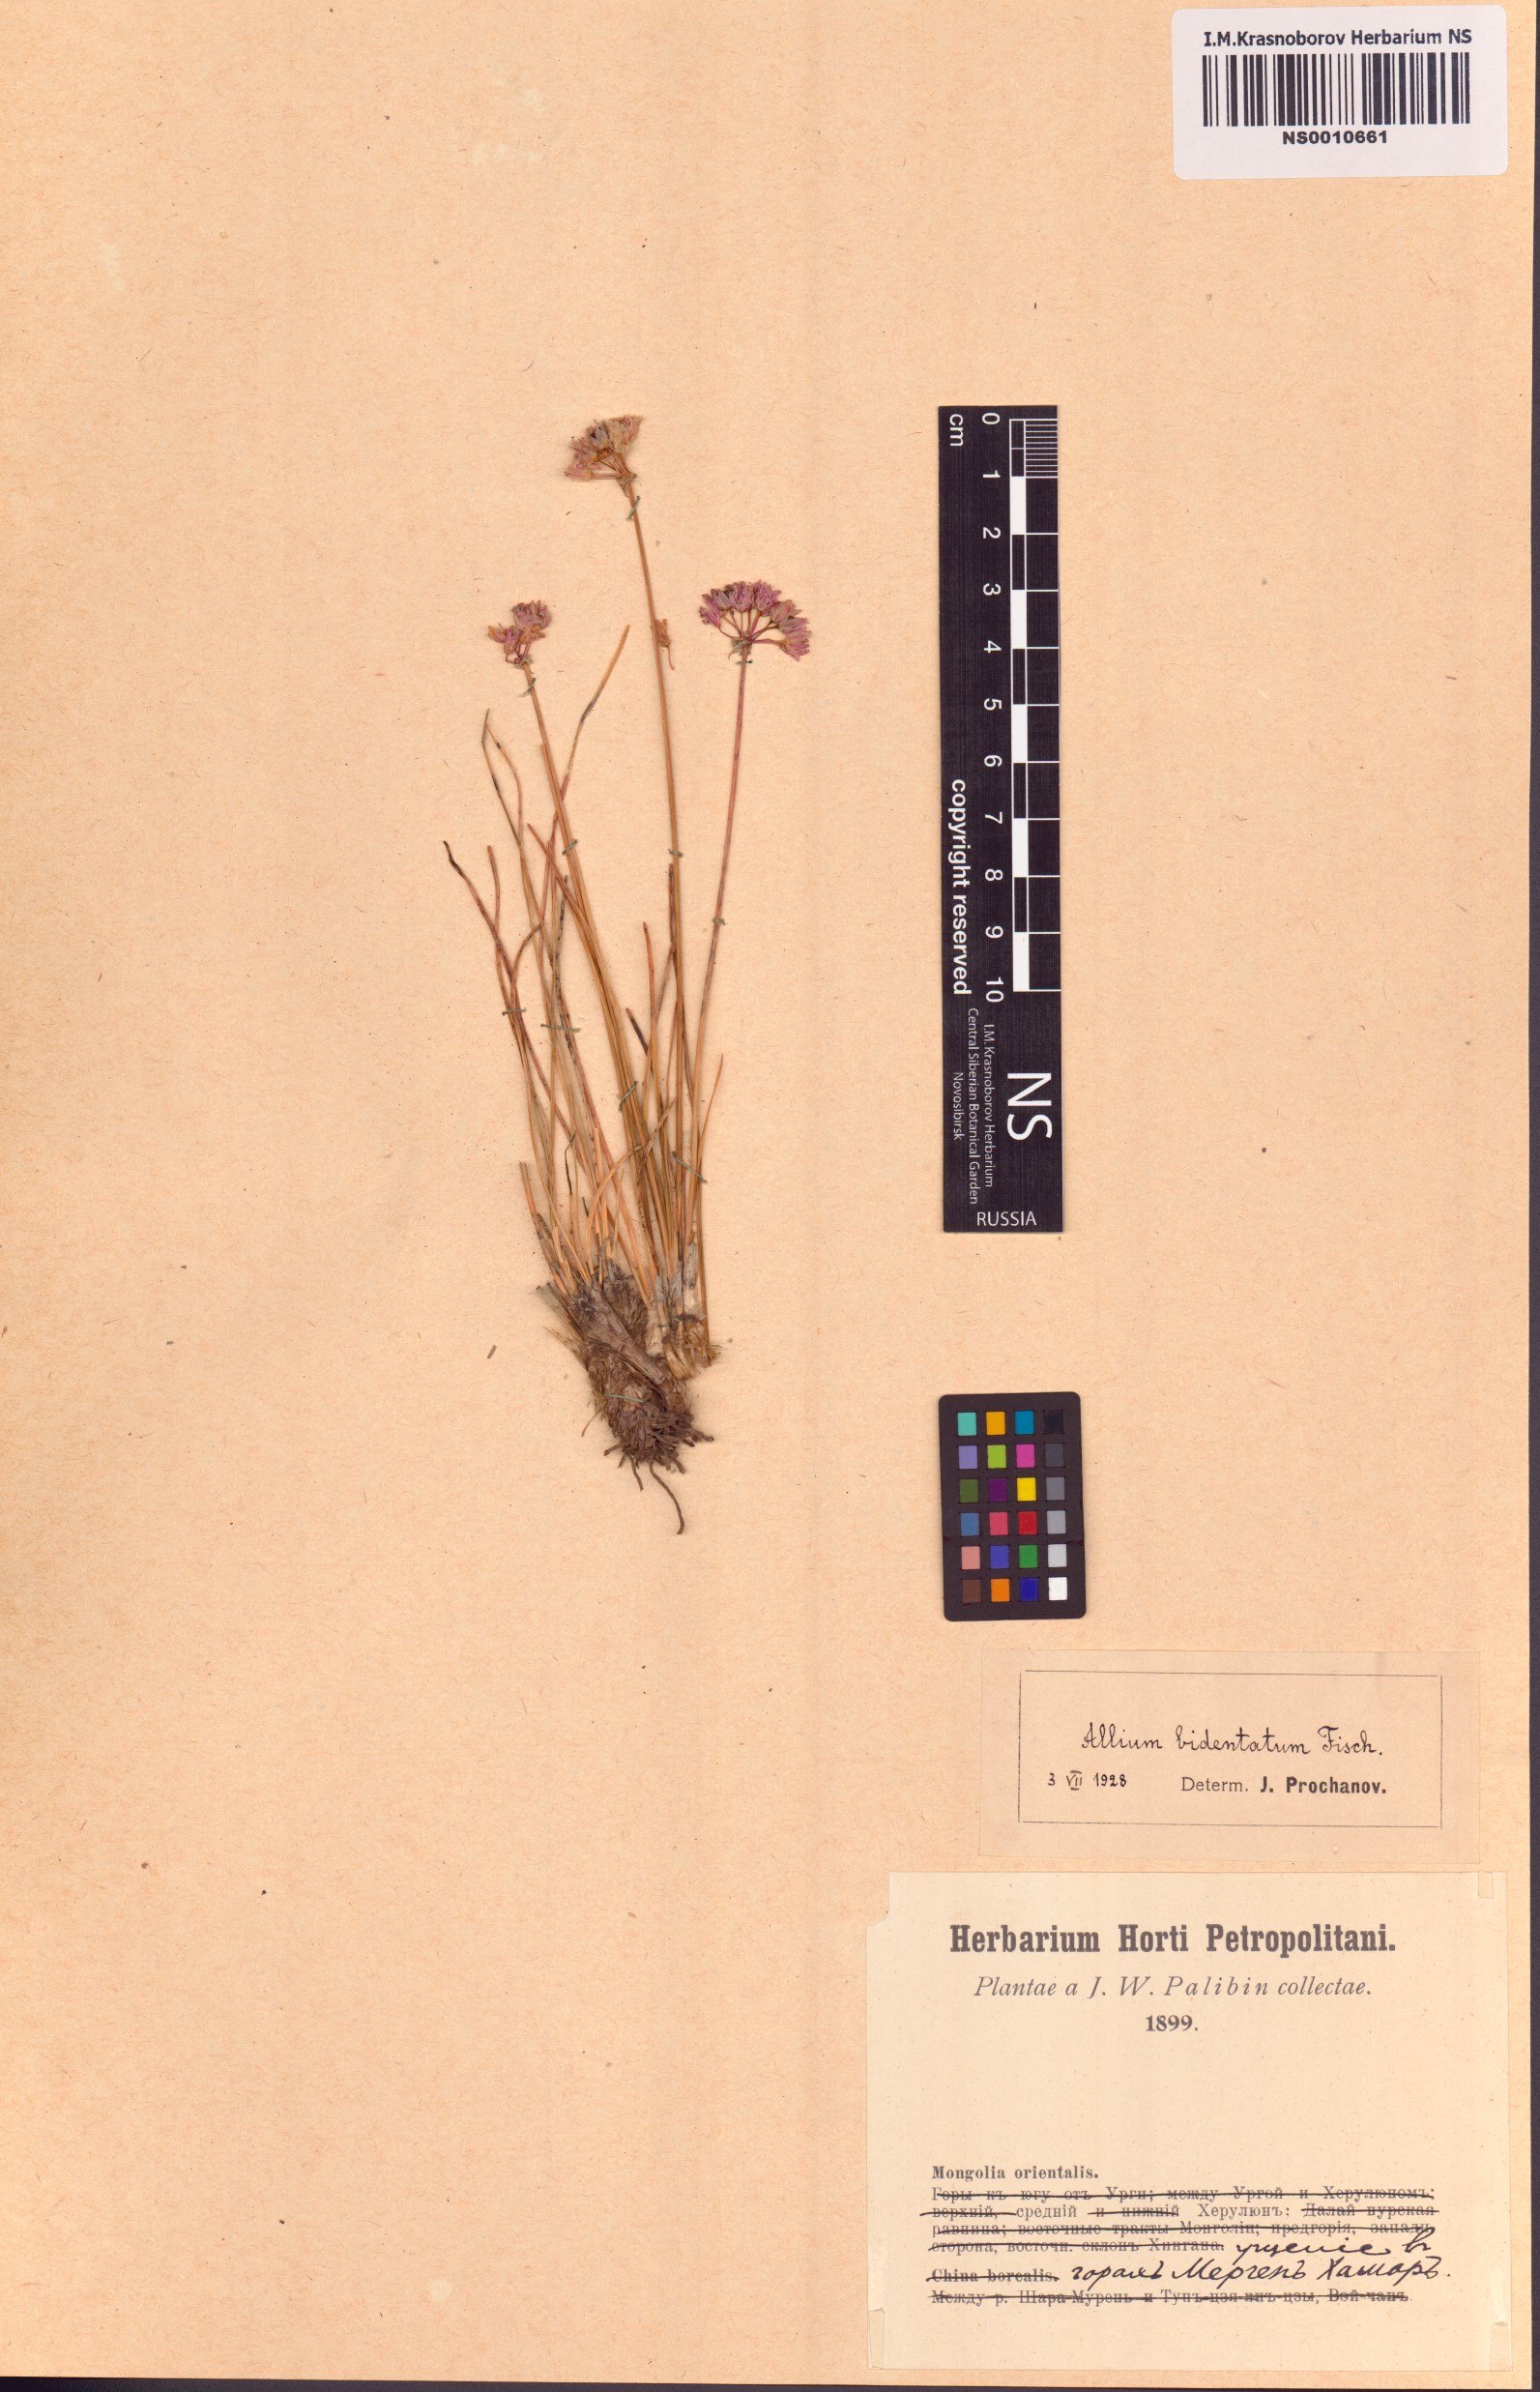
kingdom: Plantae
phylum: Tracheophyta
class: Liliopsida
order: Asparagales
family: Amaryllidaceae
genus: Allium
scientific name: Allium bidentatum
